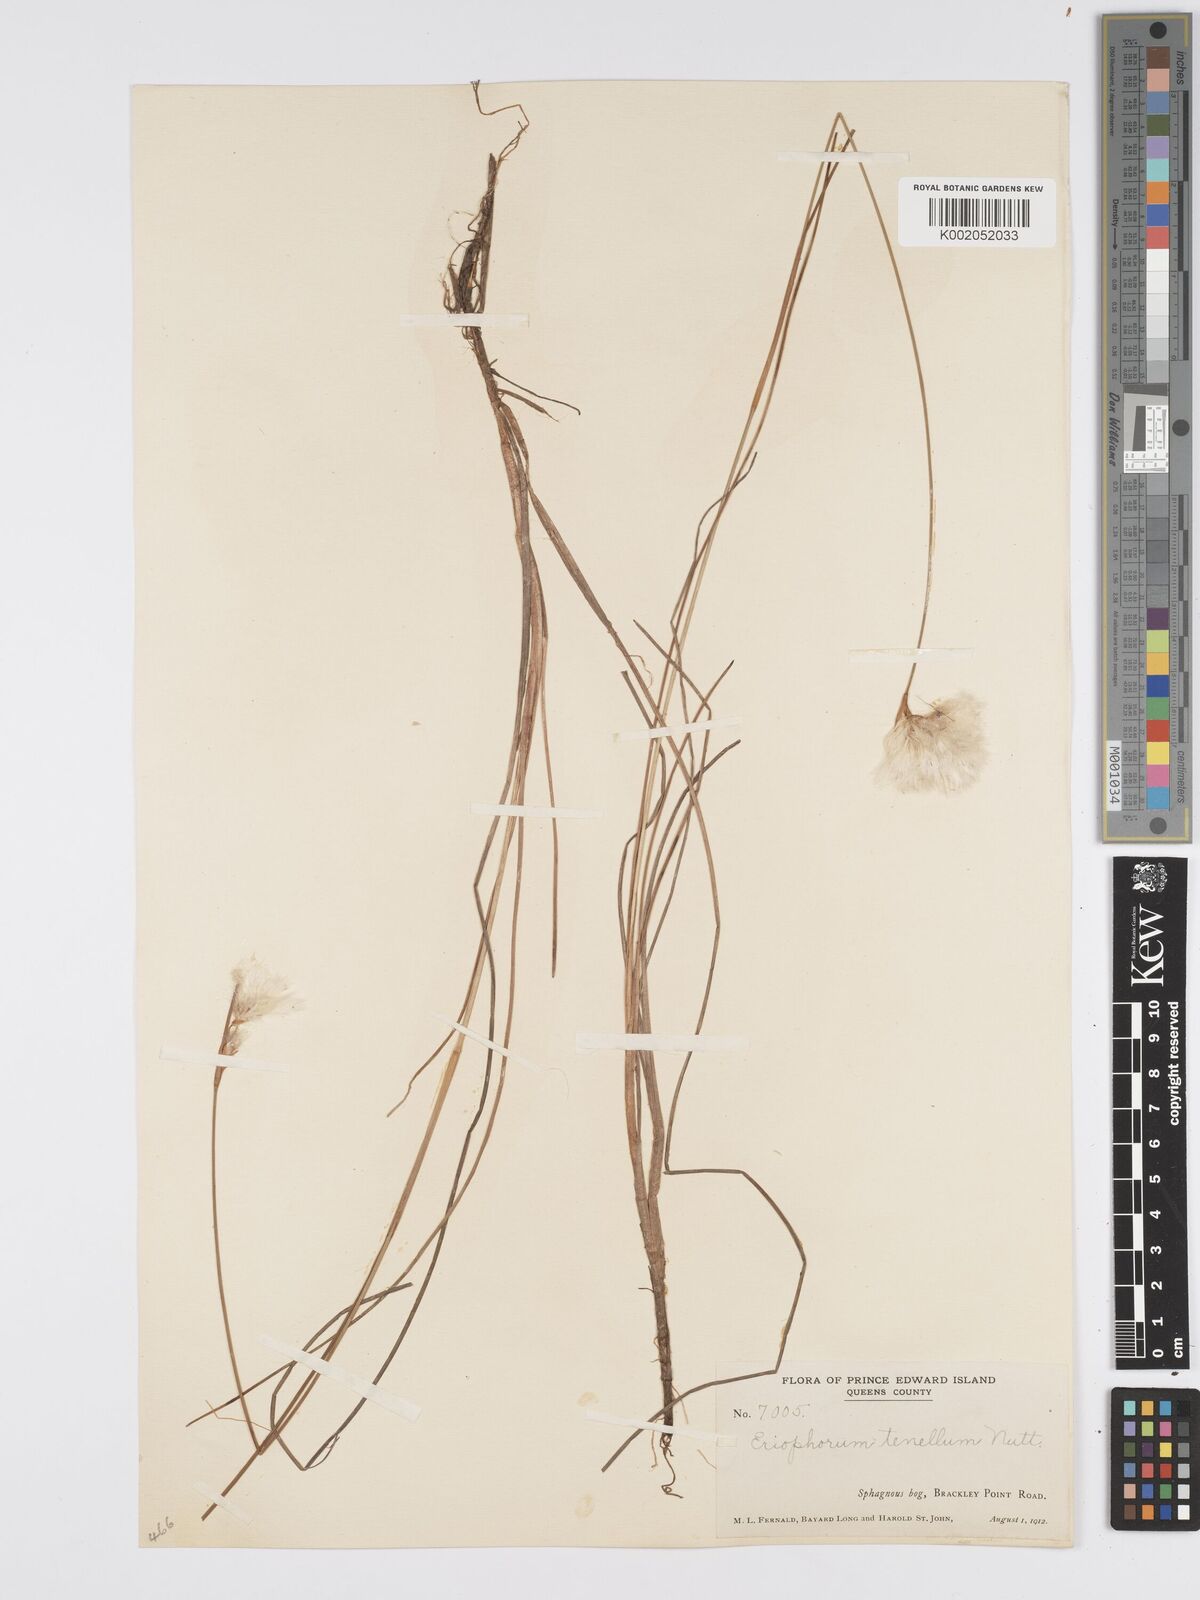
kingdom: Plantae
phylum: Tracheophyta
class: Liliopsida
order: Poales
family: Cyperaceae
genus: Eriophorum
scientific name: Eriophorum tenellum
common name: Few-nerved cottongrass
